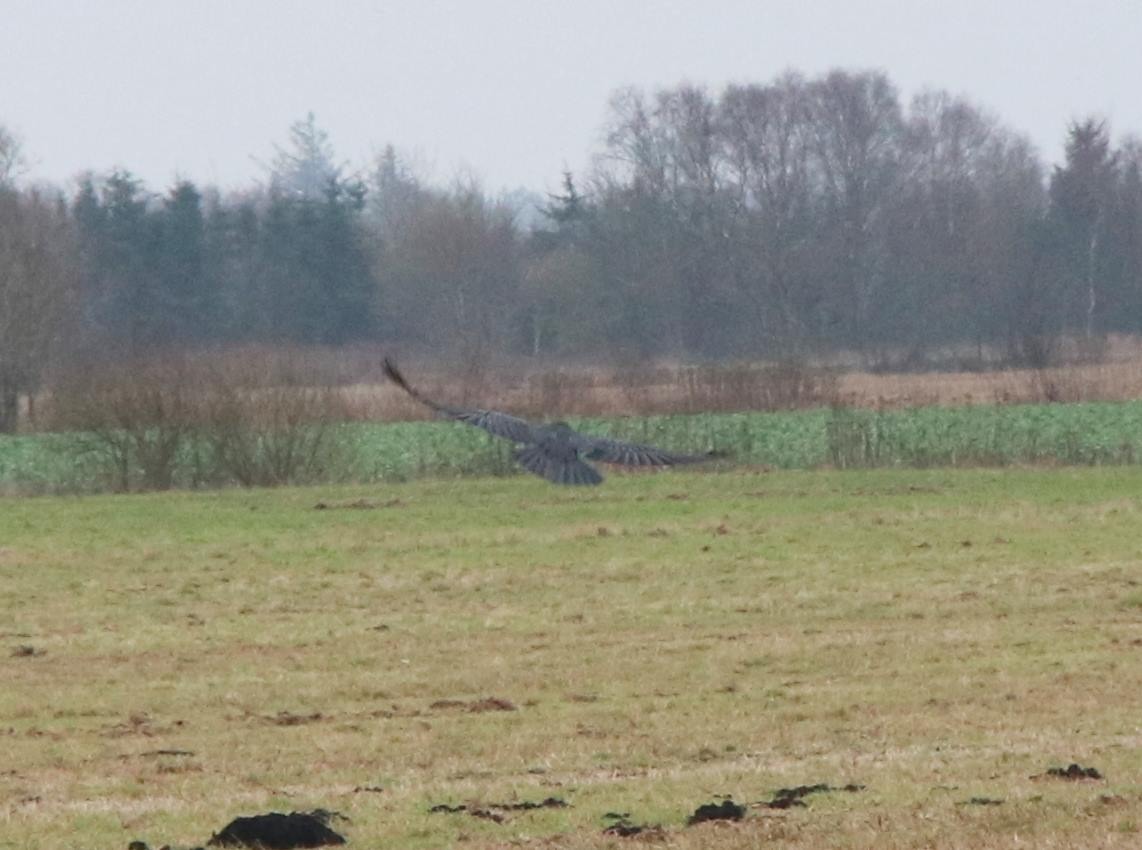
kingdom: Animalia
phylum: Chordata
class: Aves
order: Passeriformes
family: Corvidae
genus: Corvus
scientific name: Corvus corax
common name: Ravn
